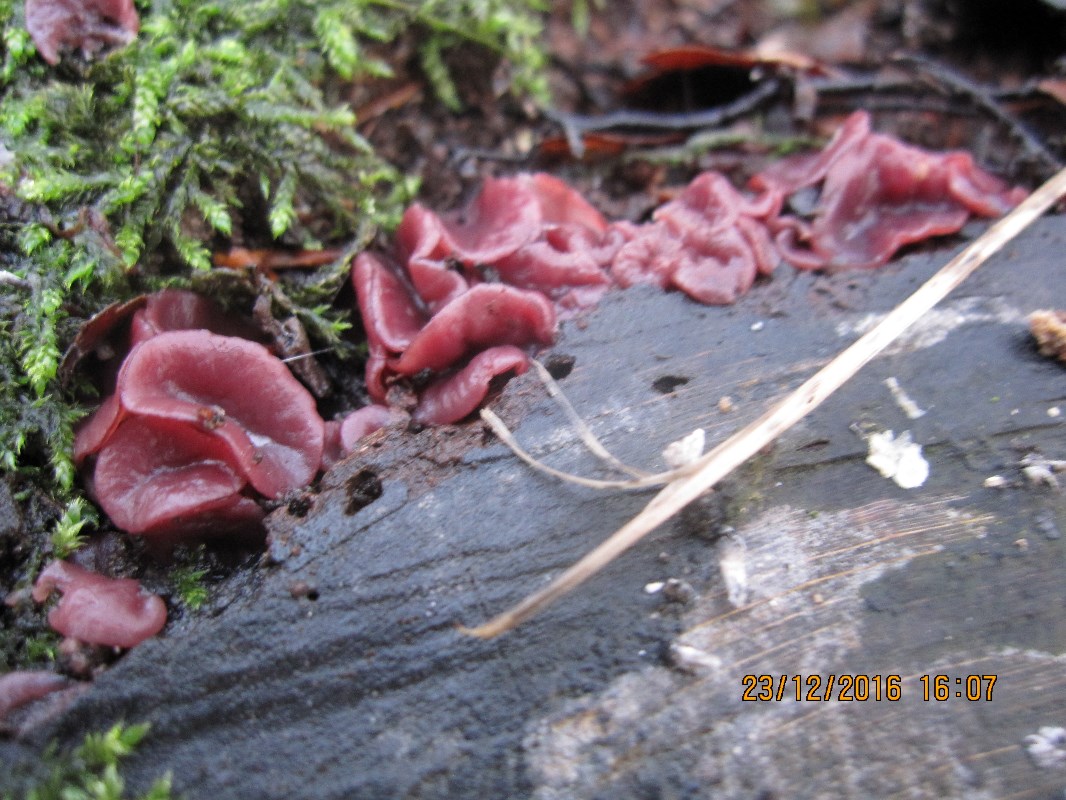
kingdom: Fungi
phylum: Ascomycota
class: Leotiomycetes
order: Helotiales
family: Gelatinodiscaceae
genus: Ascocoryne
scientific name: Ascocoryne cylichnium
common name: stor sejskive
